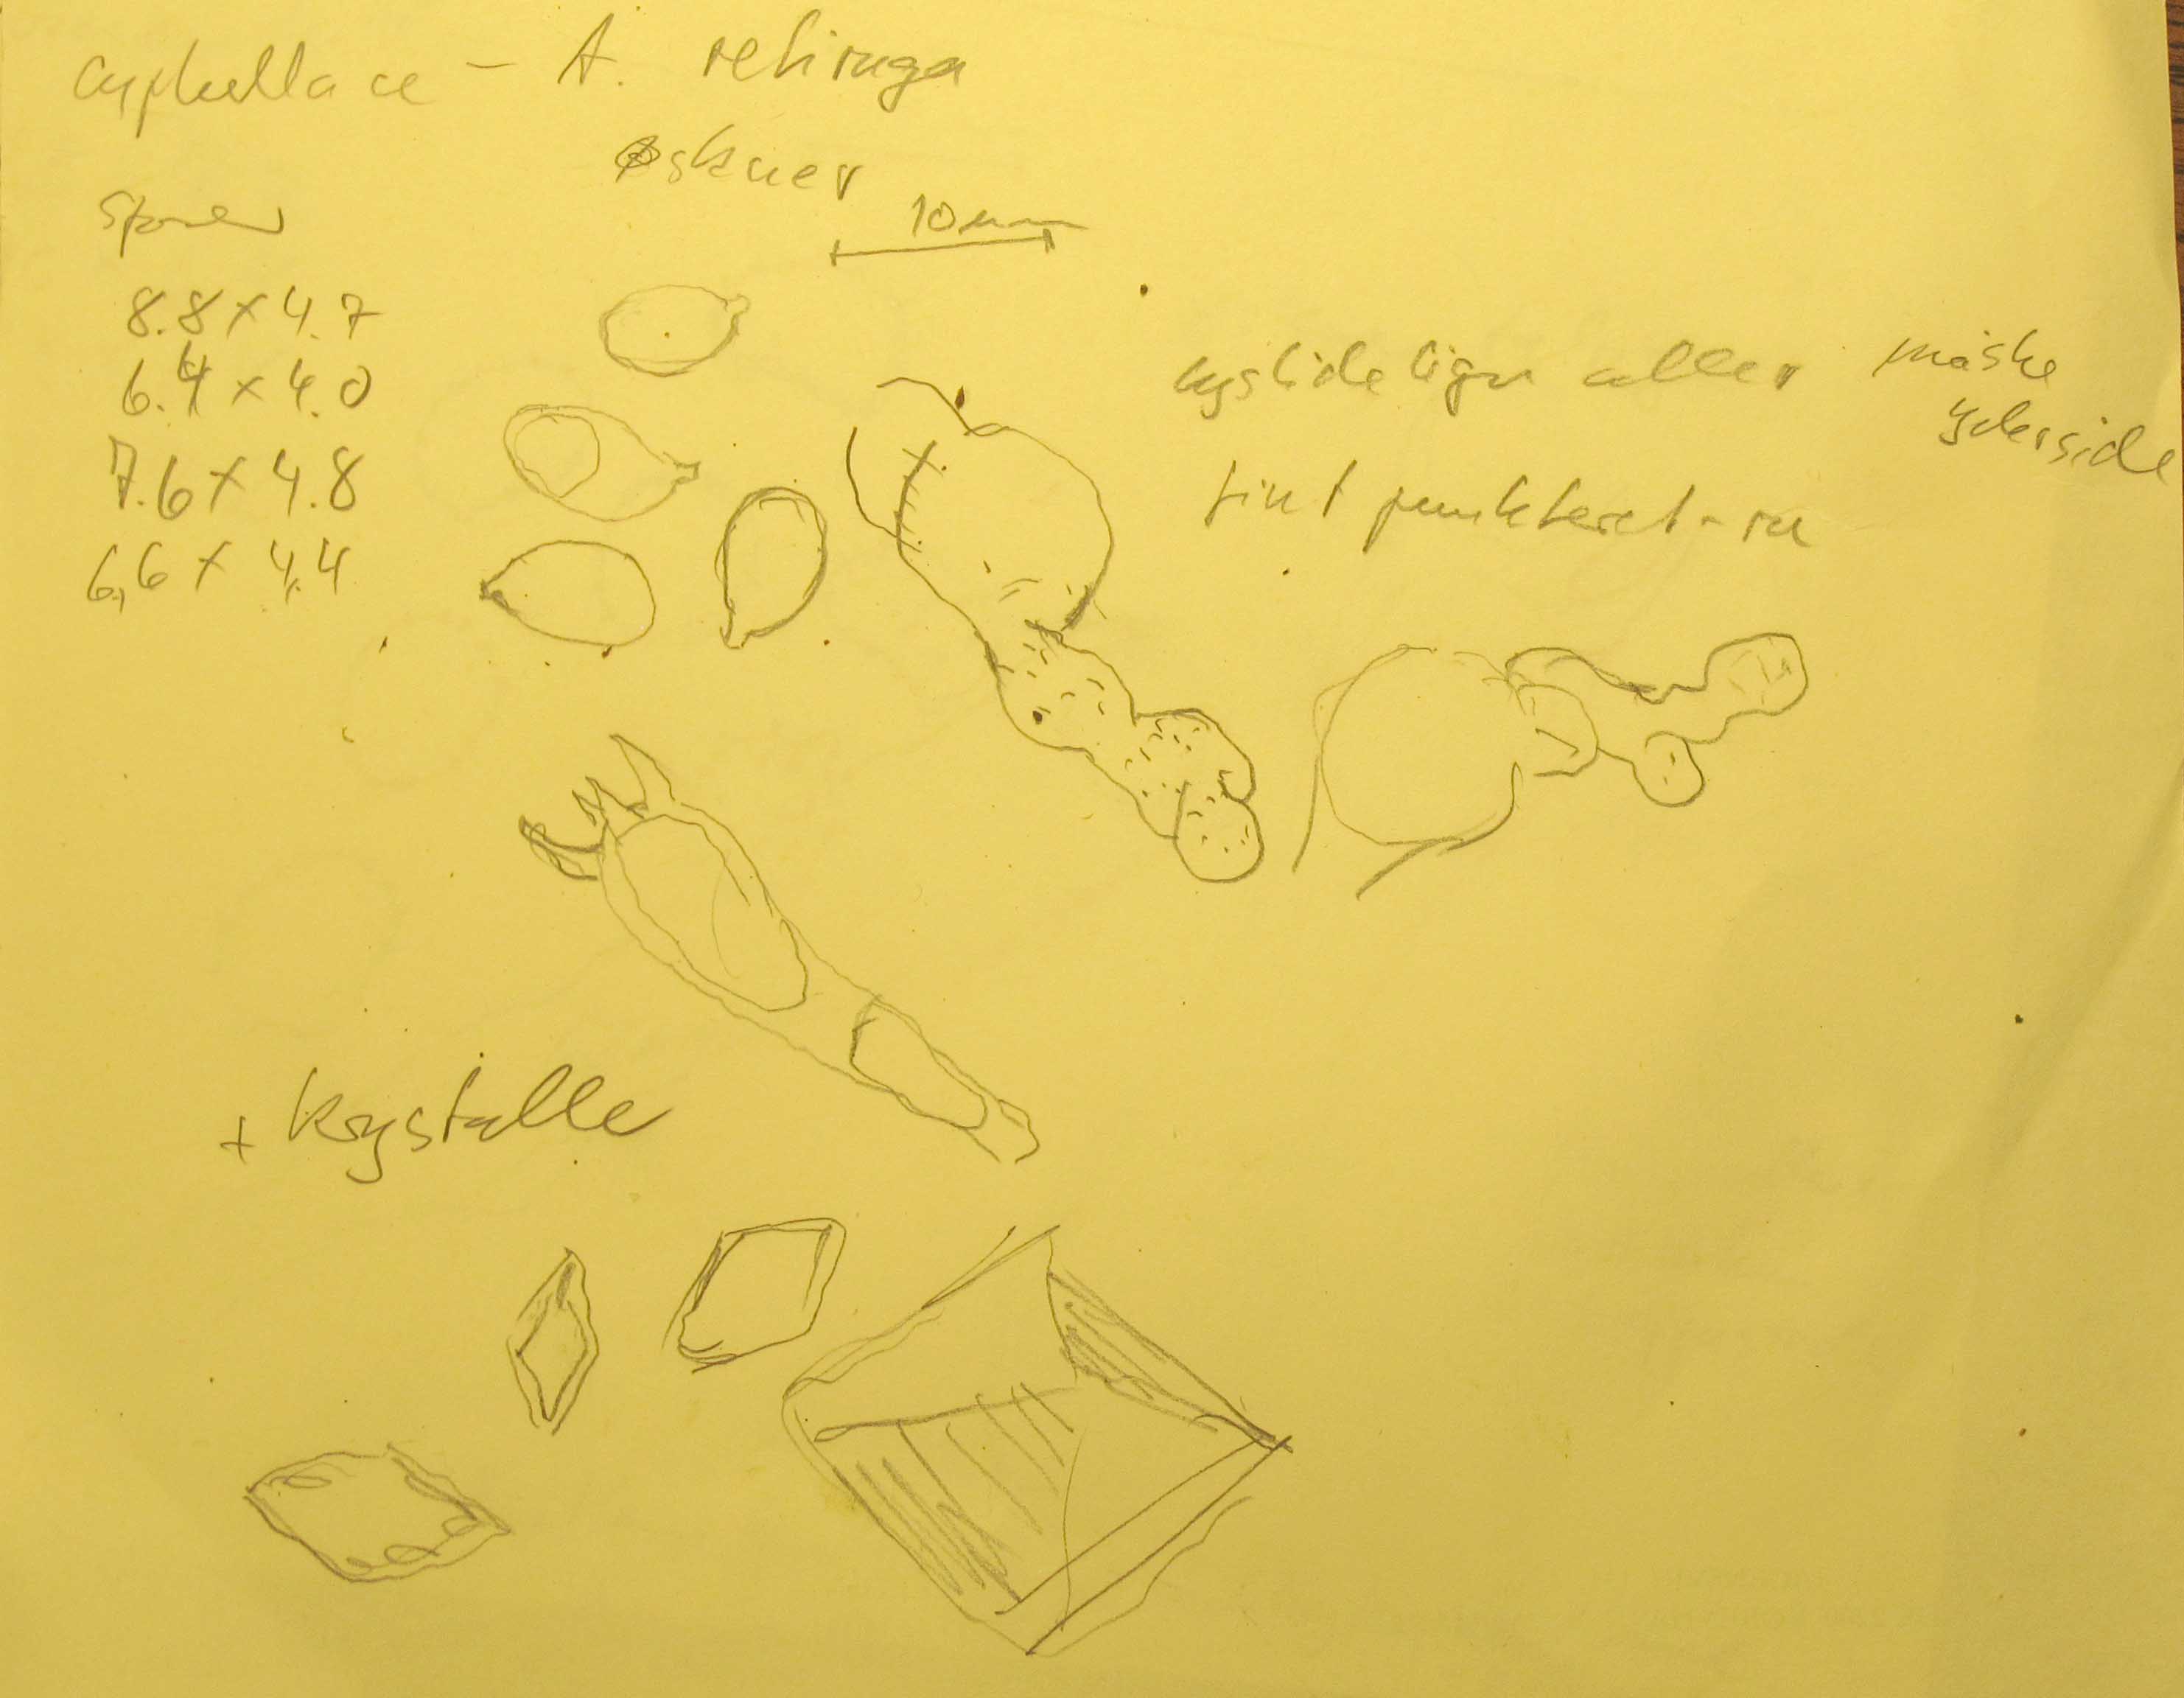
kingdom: Fungi
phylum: Basidiomycota
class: Agaricomycetes
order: Agaricales
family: Hygrophoraceae
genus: Arrhenia
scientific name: Arrhenia retiruga
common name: lille fontænehat
